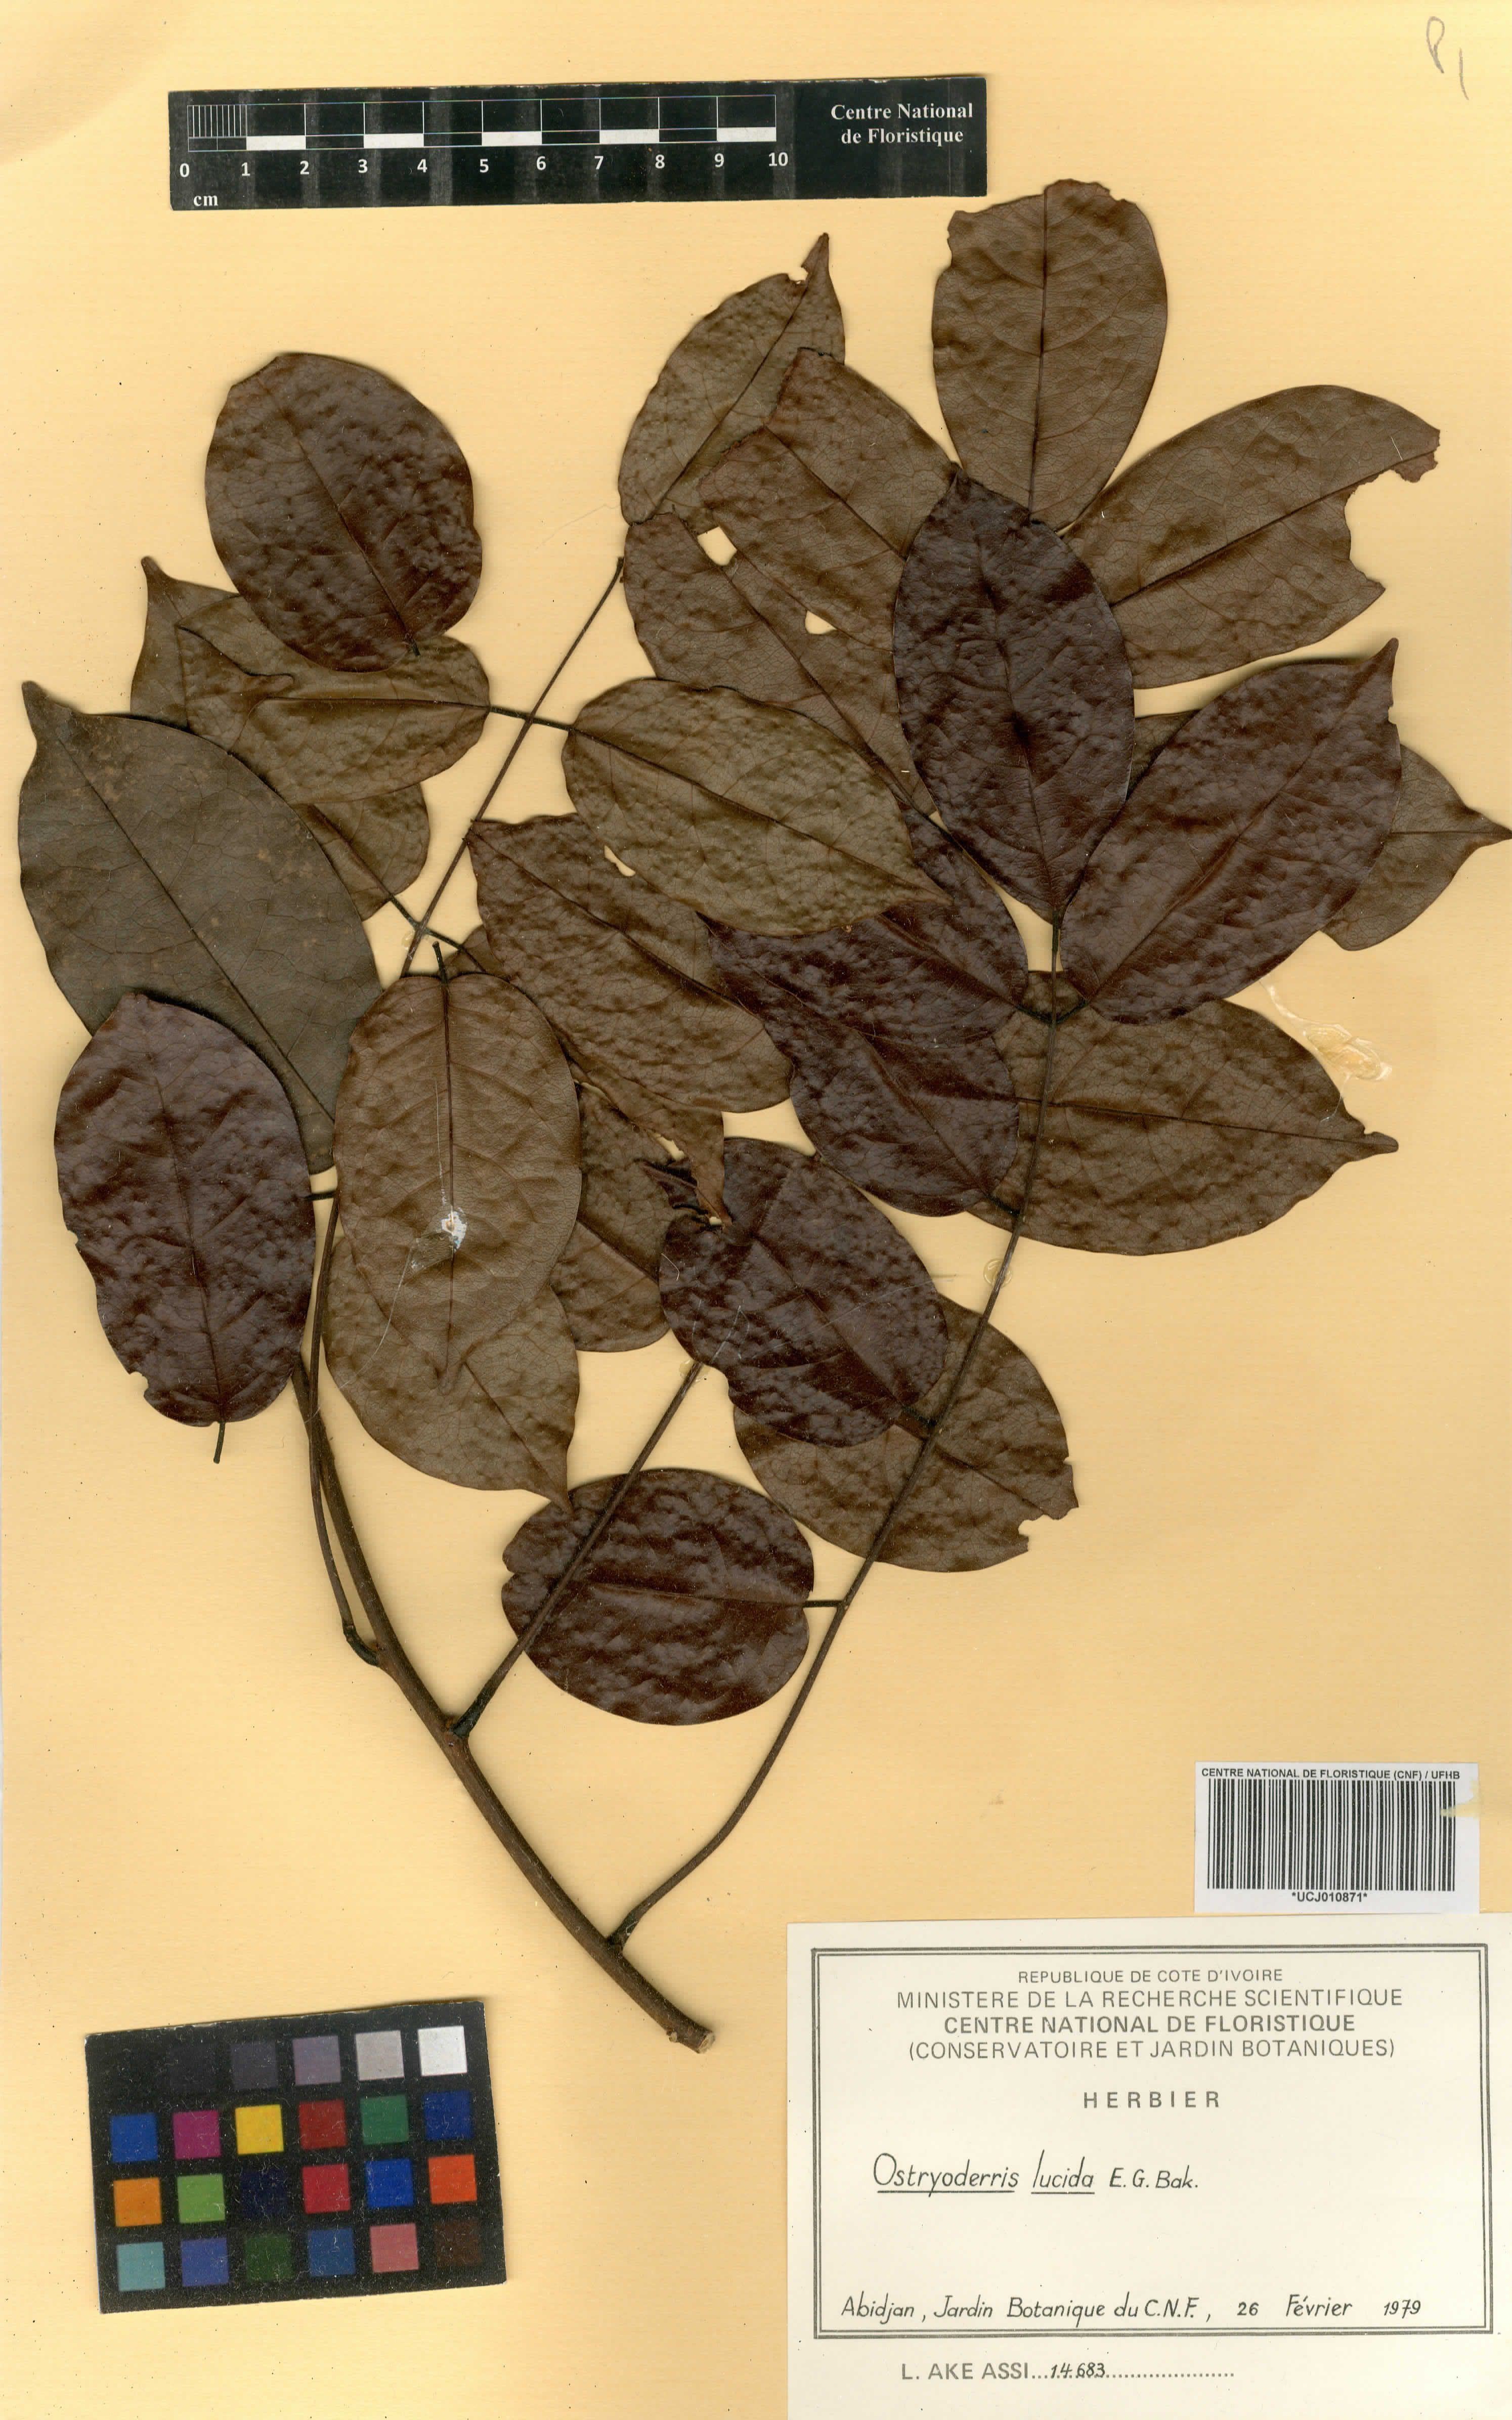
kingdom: Plantae
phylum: Tracheophyta
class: Magnoliopsida
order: Fabales
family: Fabaceae
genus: Aganope
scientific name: Aganope lucida
